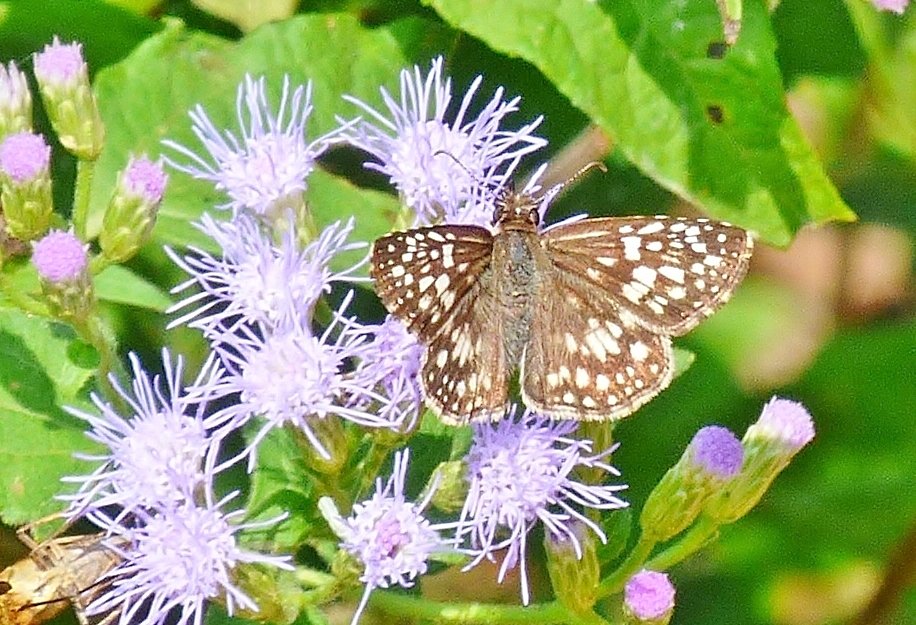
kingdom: Animalia
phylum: Arthropoda
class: Insecta
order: Lepidoptera
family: Hesperiidae
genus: Pyrgus
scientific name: Pyrgus oileus
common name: Tropical Checkered-Skipper
